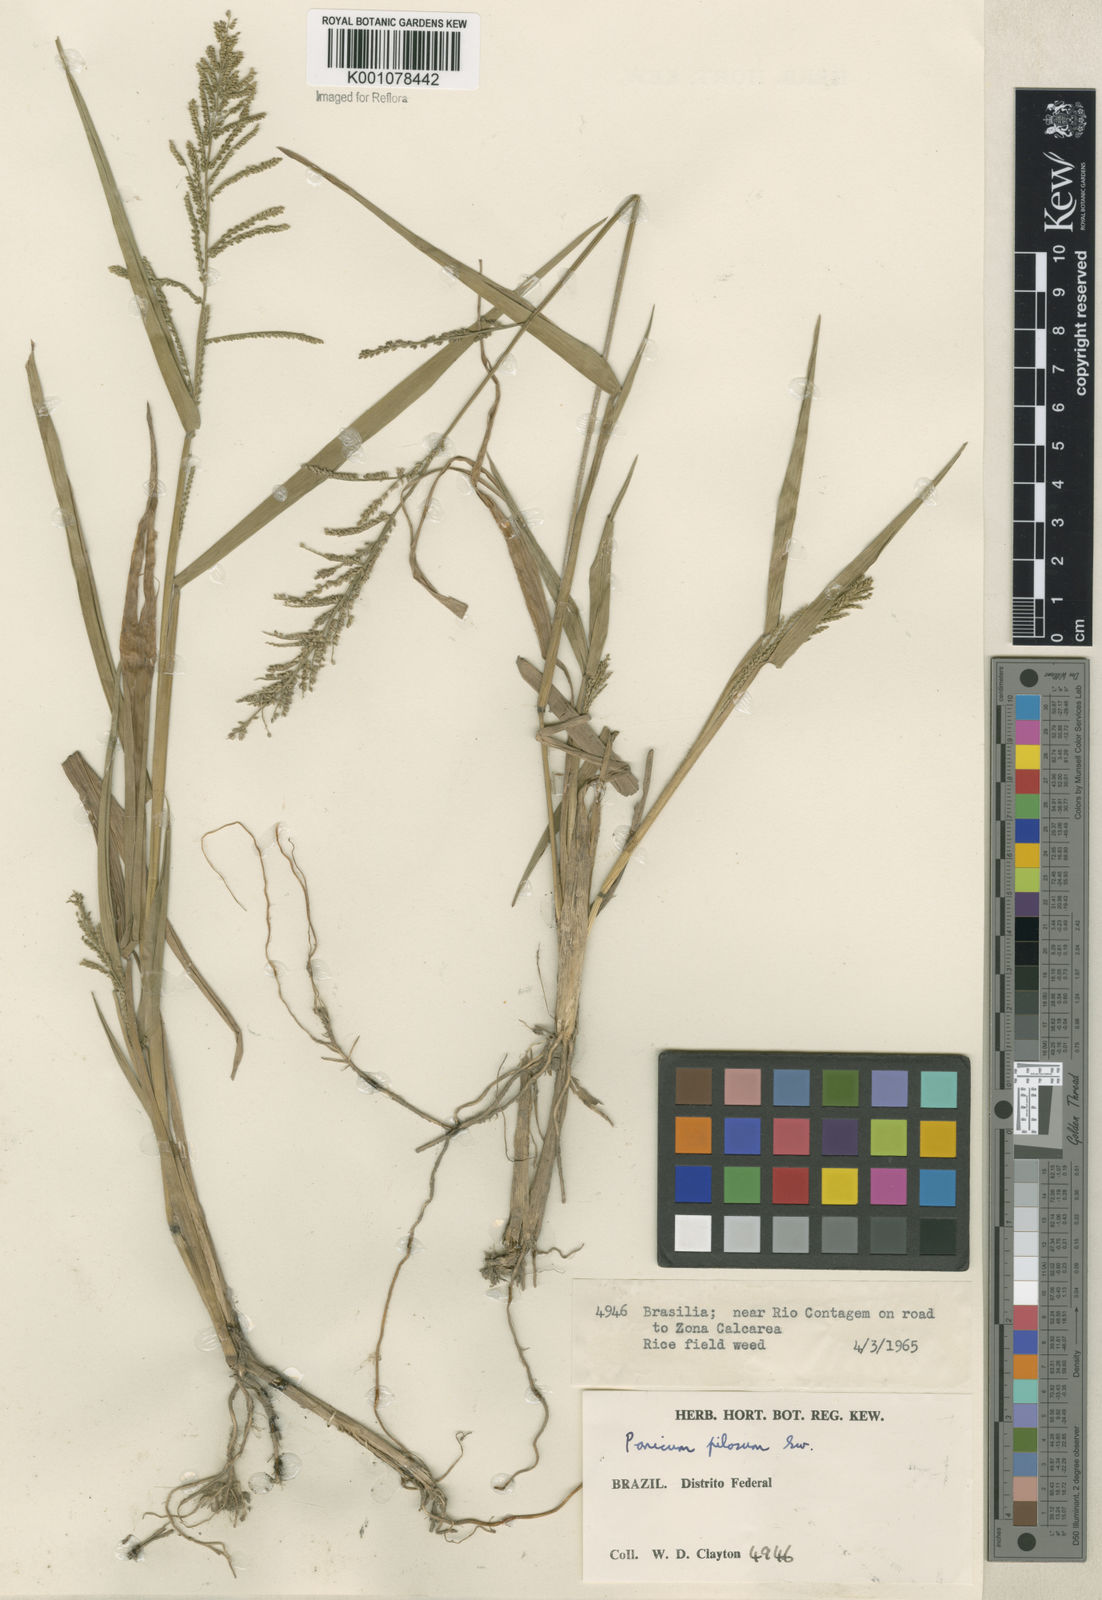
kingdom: Plantae
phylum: Tracheophyta
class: Liliopsida
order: Poales
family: Poaceae
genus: Rugoloa
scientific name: Rugoloa pilosa
